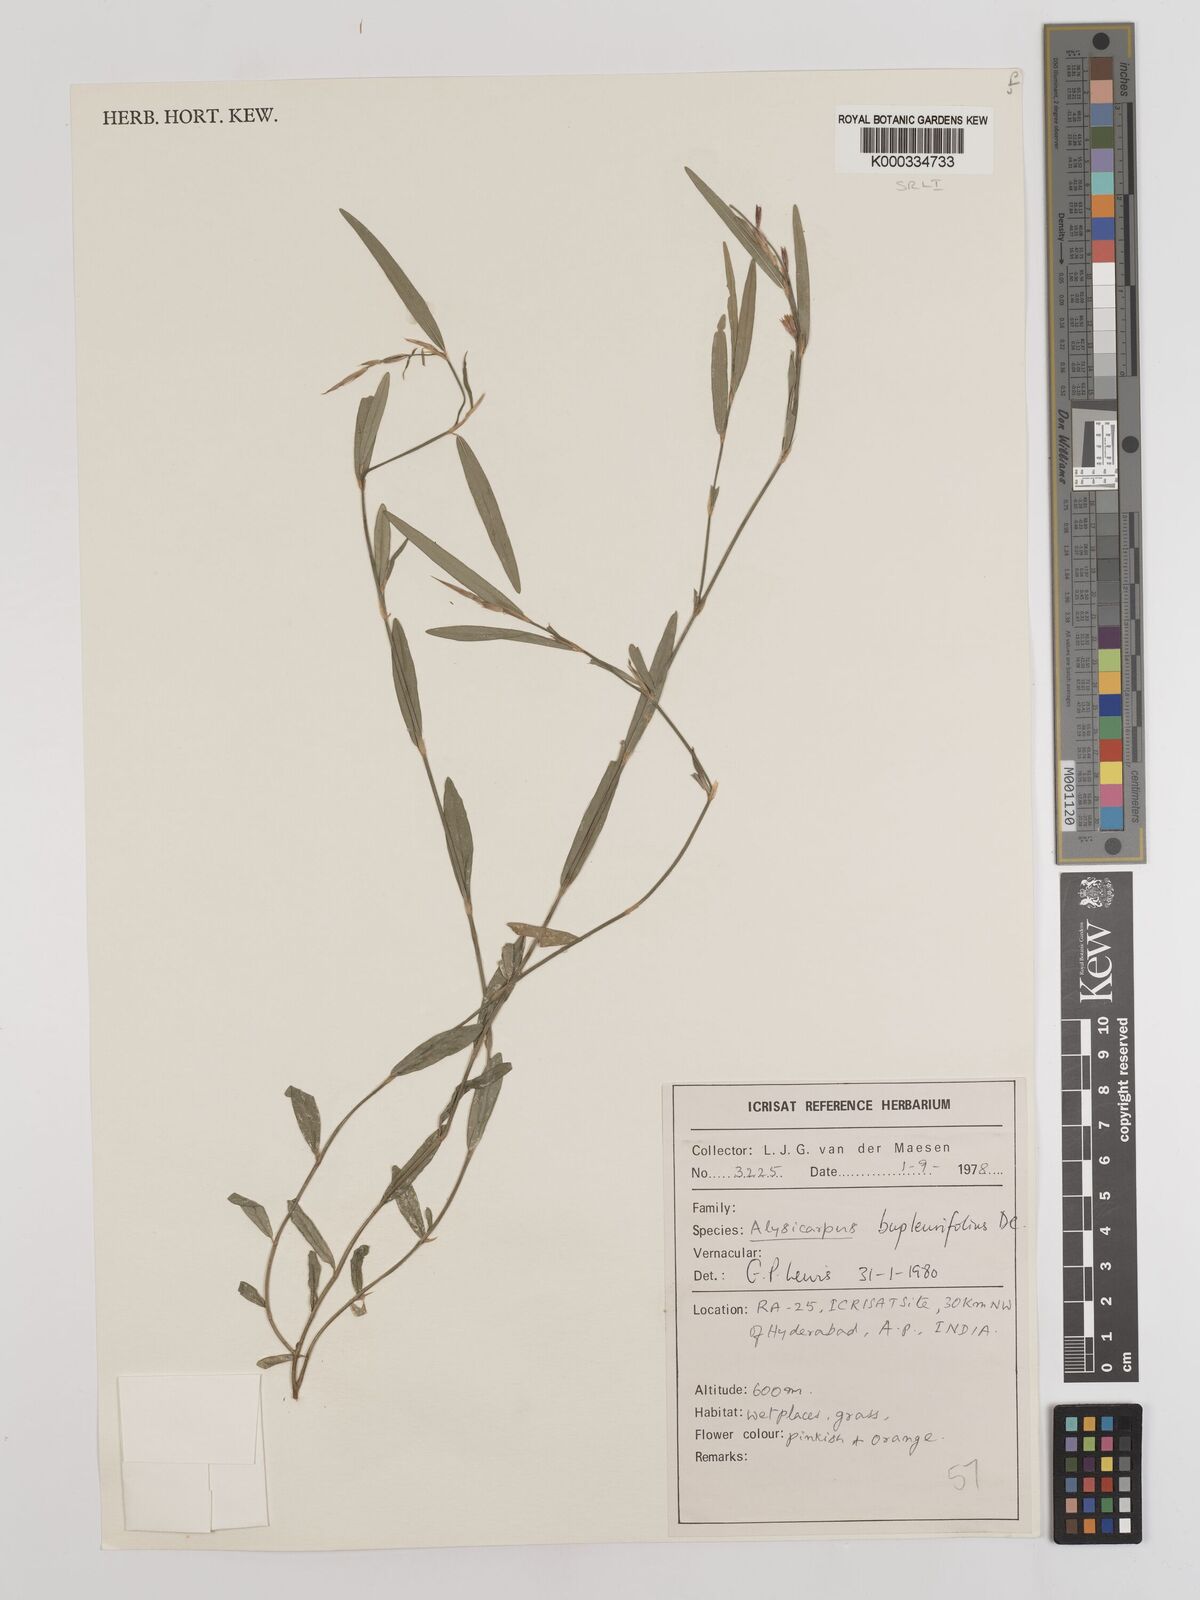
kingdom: Plantae
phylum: Tracheophyta
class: Magnoliopsida
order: Fabales
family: Fabaceae
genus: Alysicarpus
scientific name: Alysicarpus bupleurifolius
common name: Sweet alys
